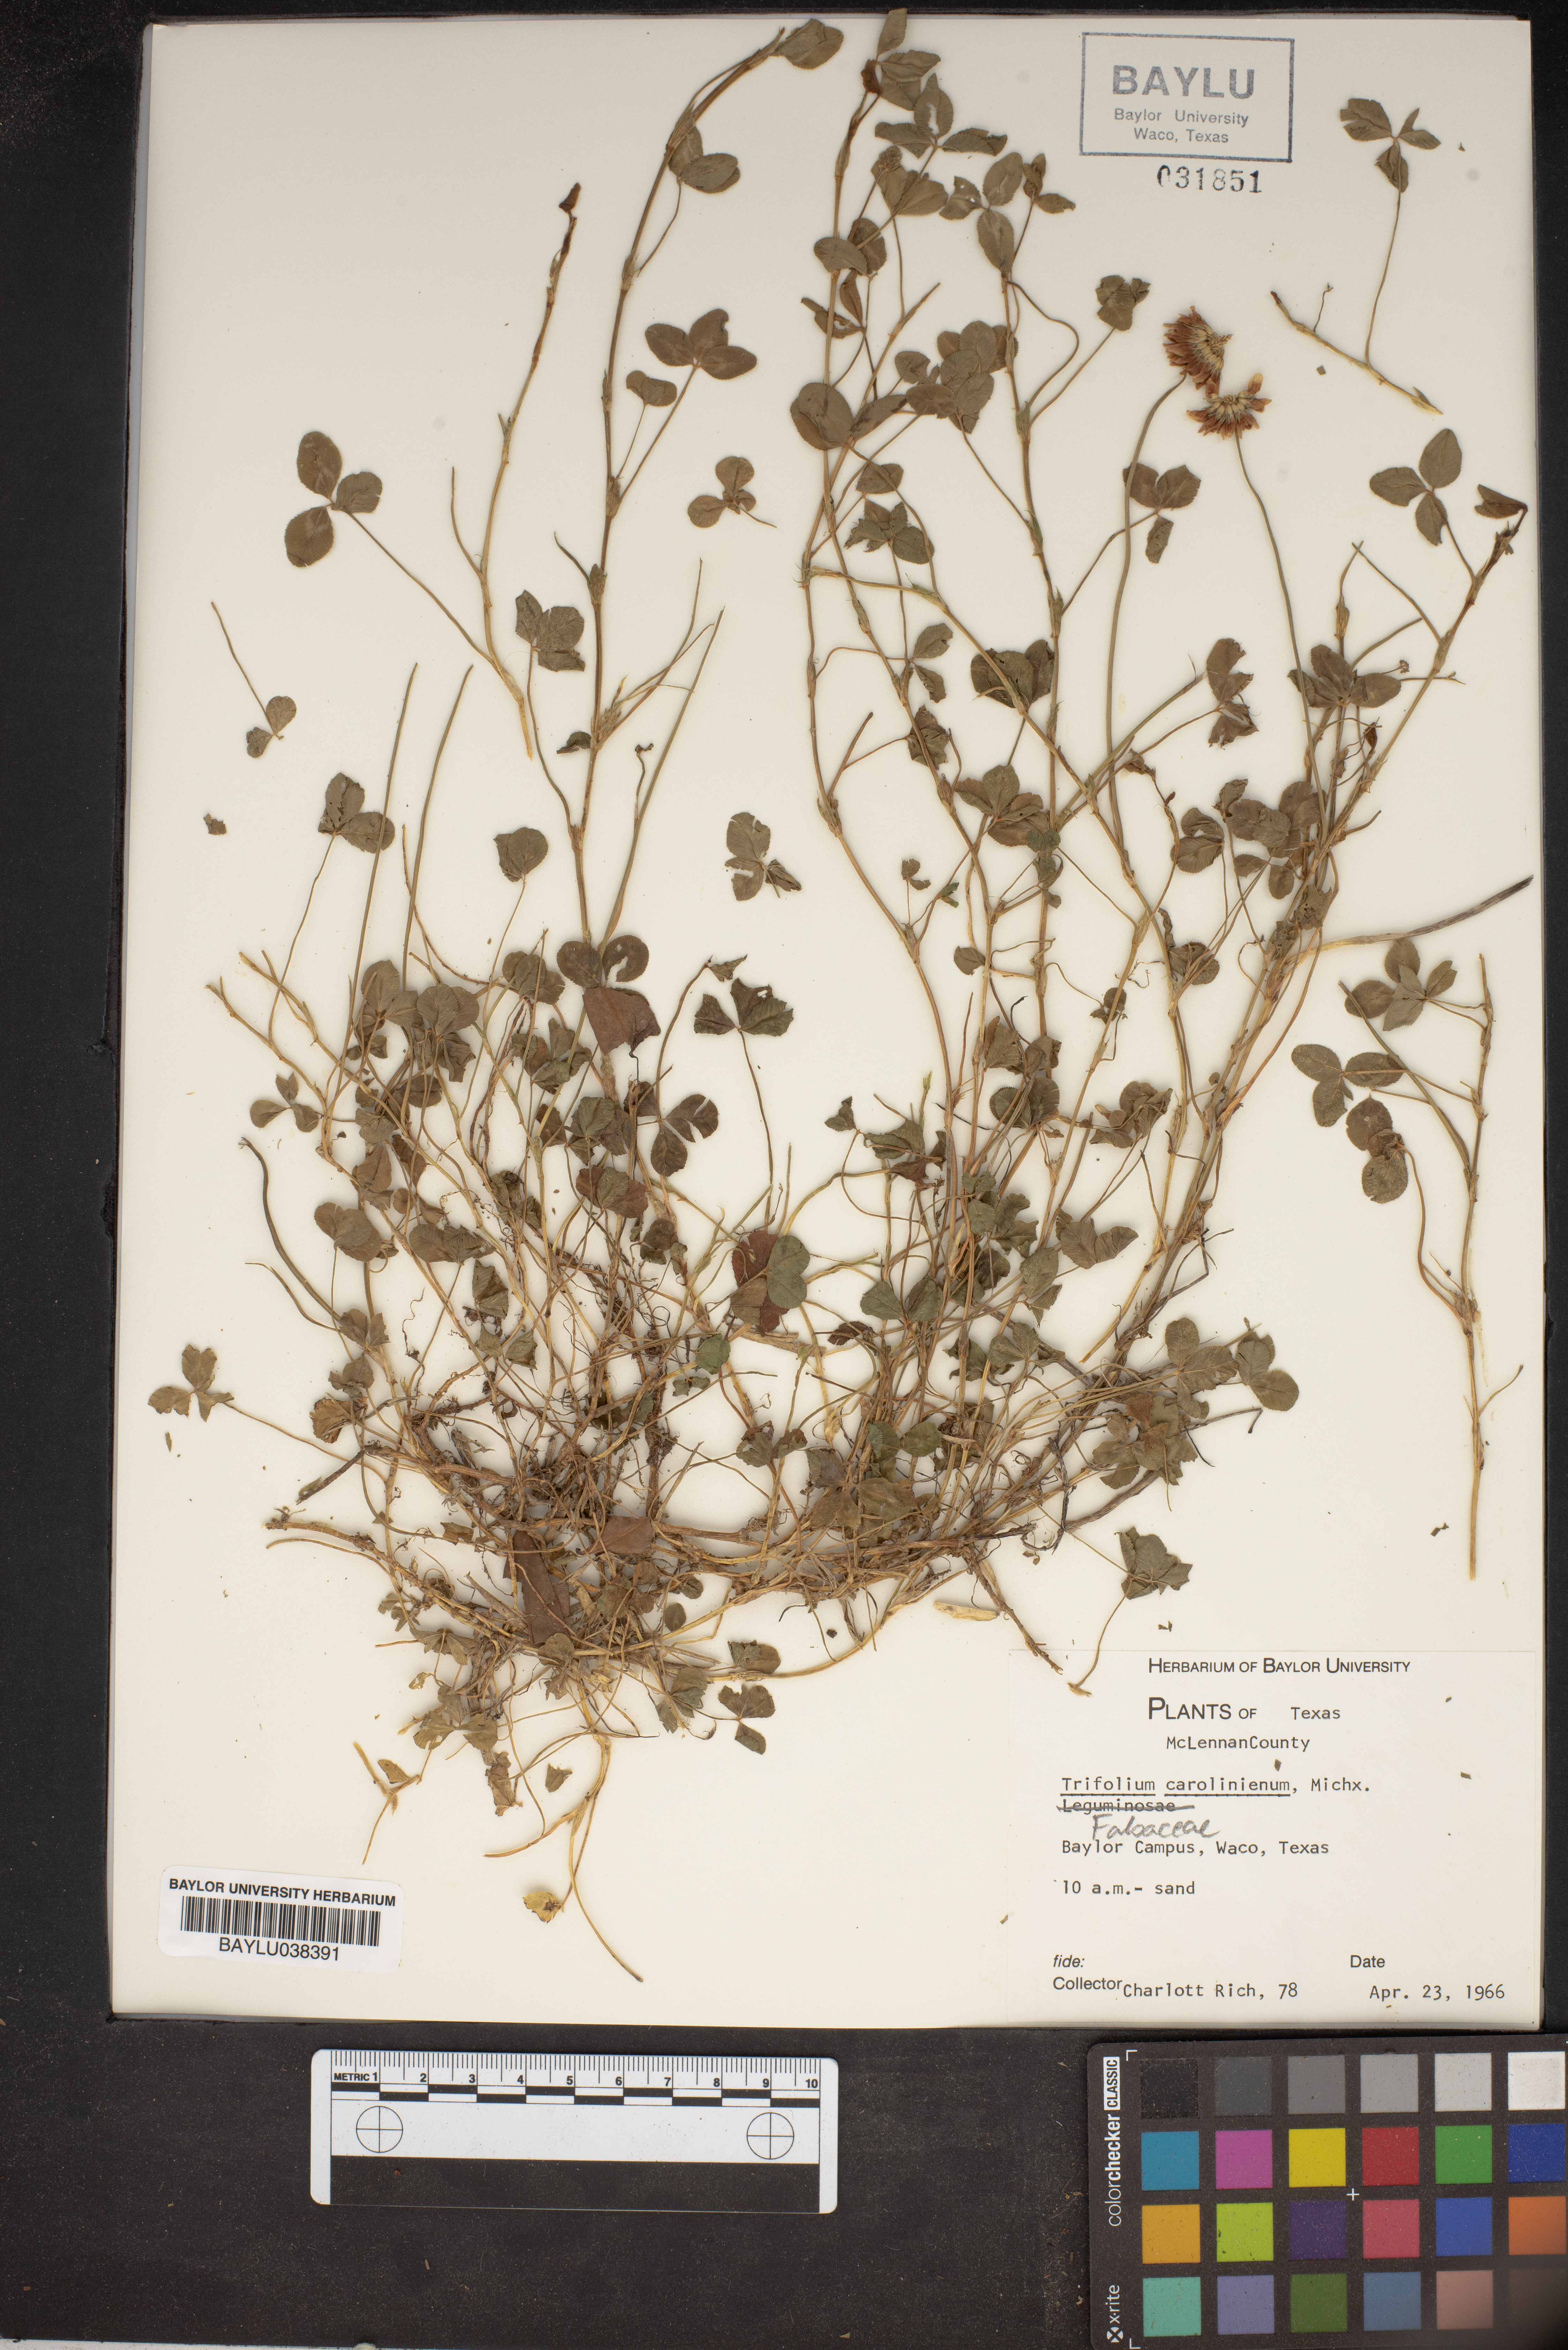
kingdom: Plantae
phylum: Tracheophyta
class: Magnoliopsida
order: Fabales
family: Fabaceae
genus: Trifolium
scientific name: Trifolium carolinianum
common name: Wild white clover
